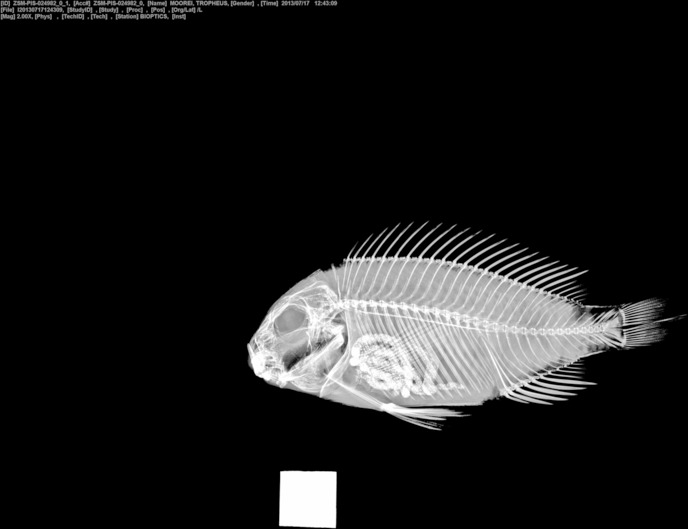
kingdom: Animalia
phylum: Chordata
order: Perciformes
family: Cichlidae
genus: Tropheus
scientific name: Tropheus moorii
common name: Blunthead cichlid
